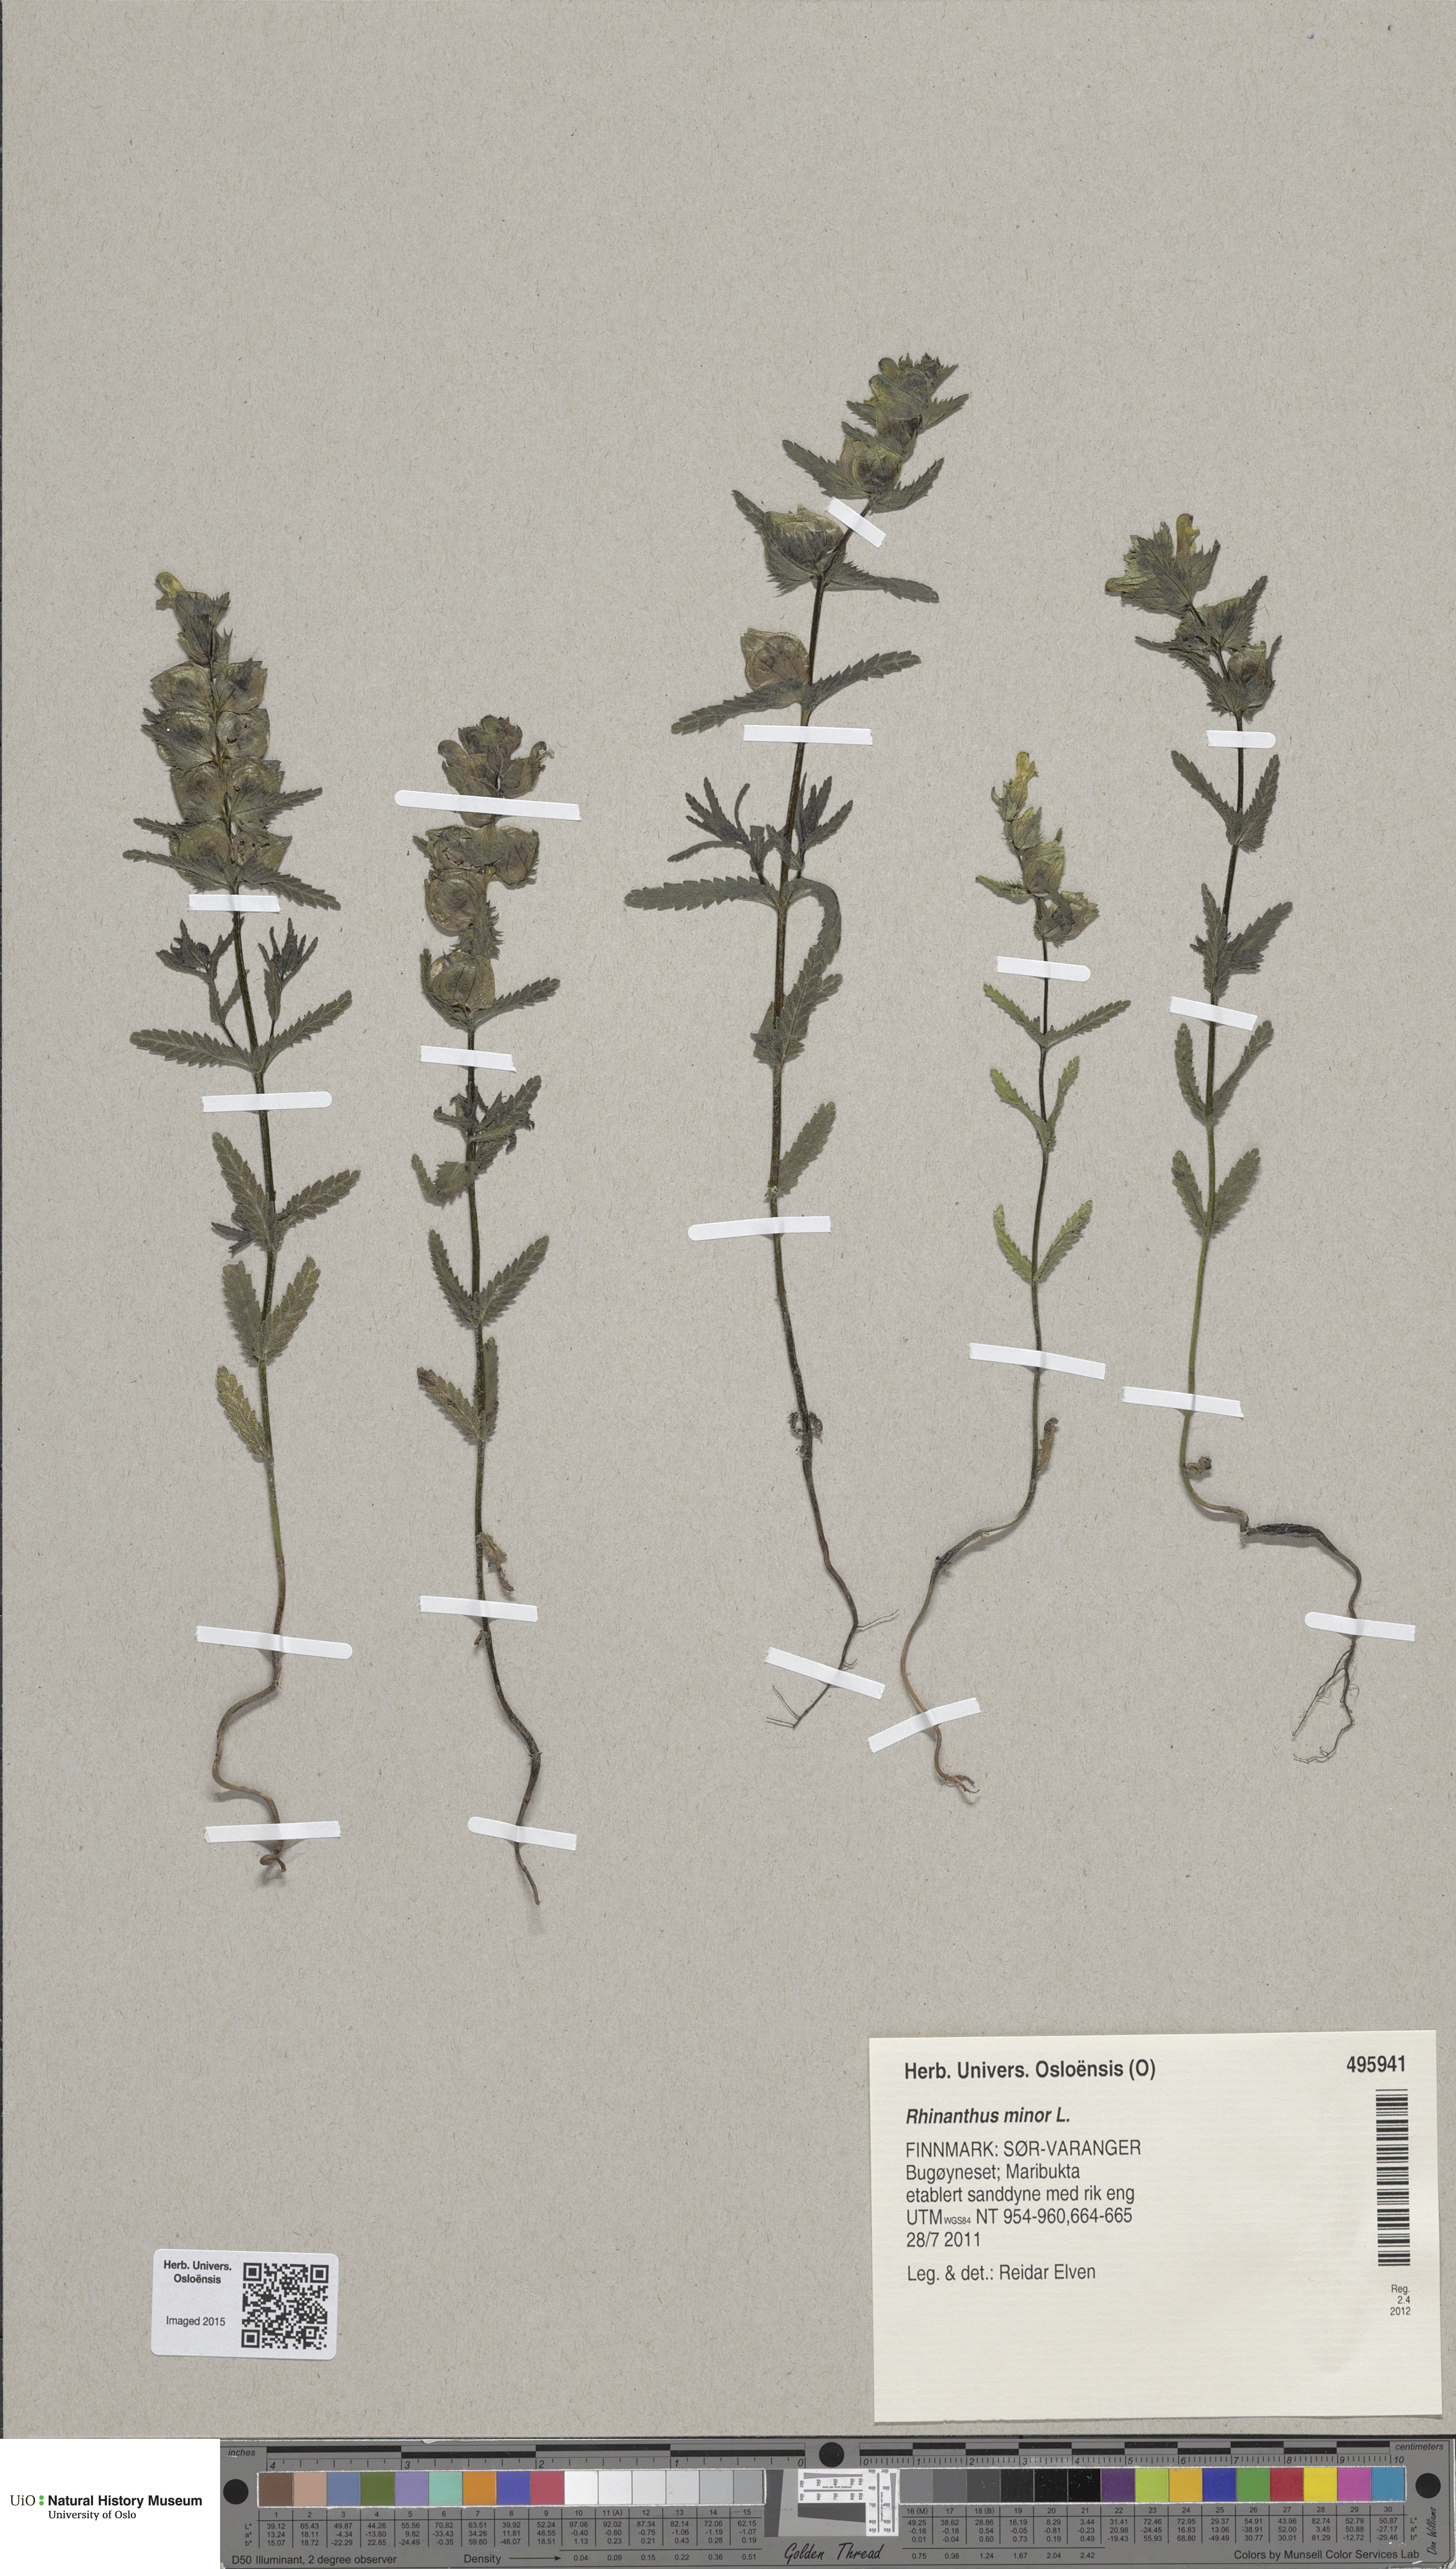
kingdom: Plantae
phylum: Tracheophyta
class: Magnoliopsida
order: Lamiales
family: Orobanchaceae
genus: Rhinanthus
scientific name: Rhinanthus minor
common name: Yellow-rattle
